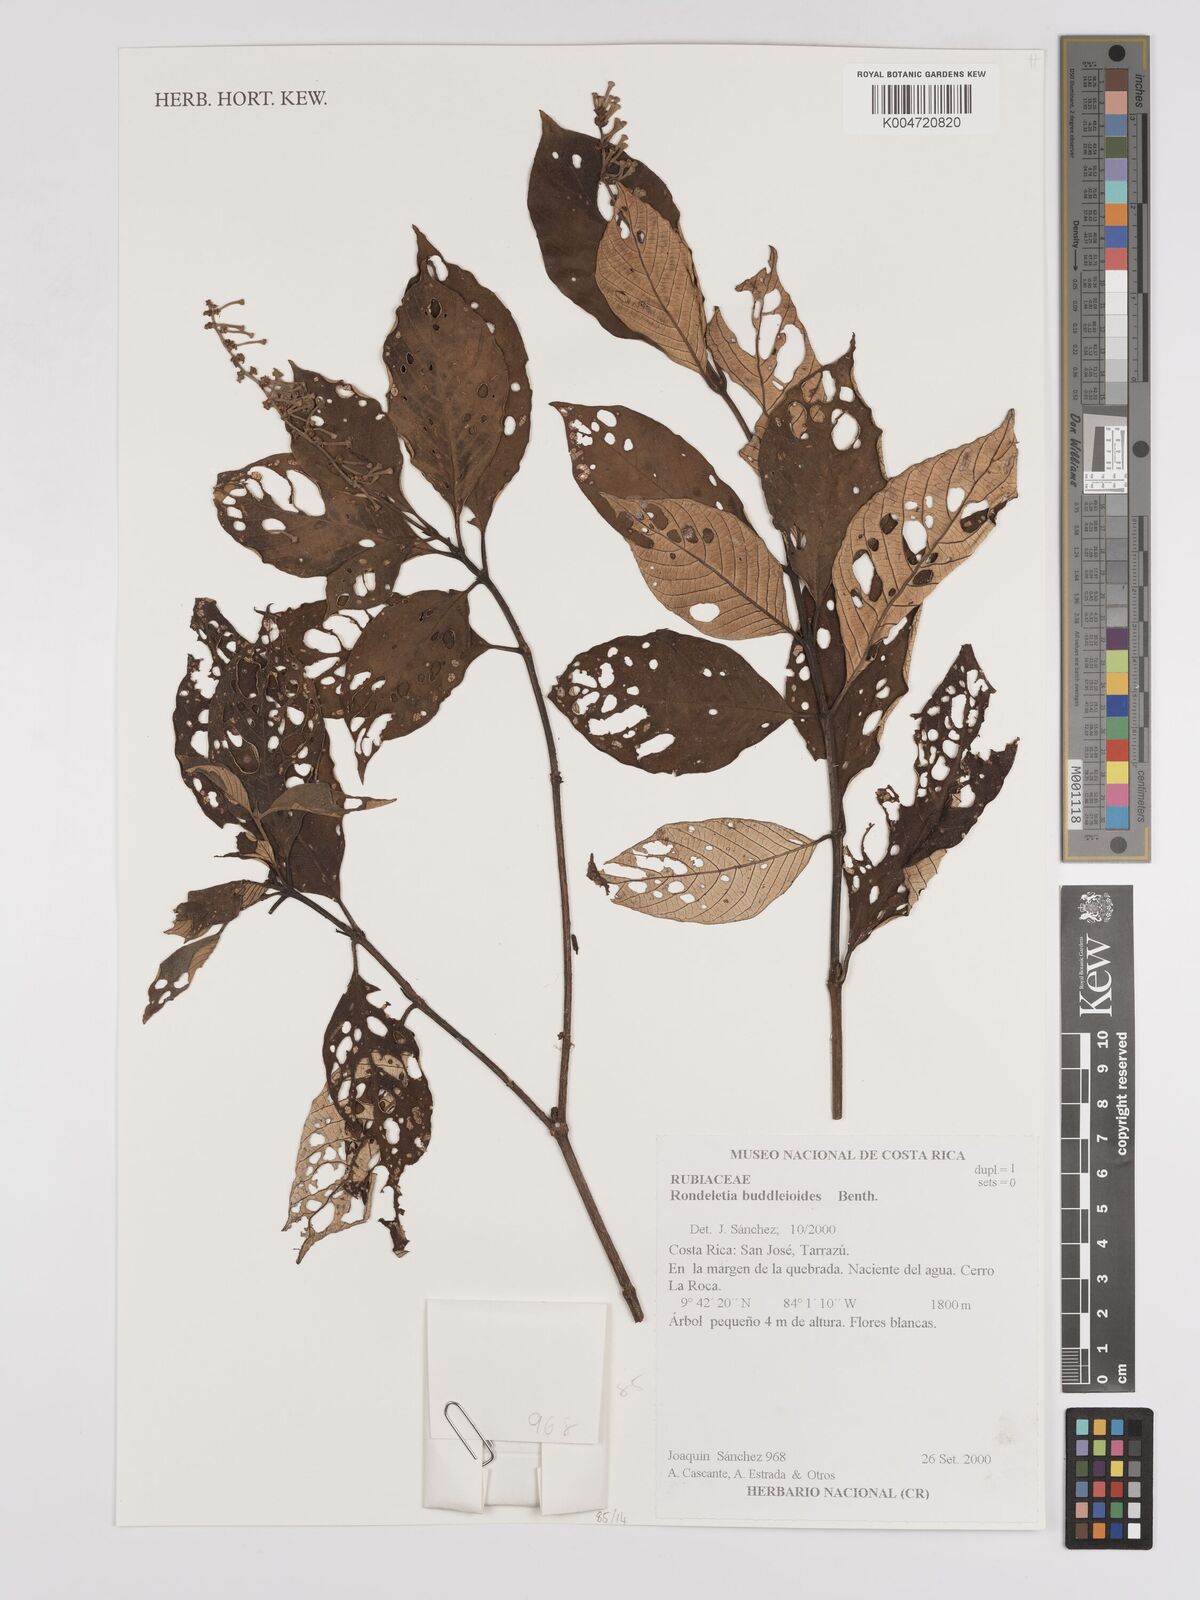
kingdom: Plantae
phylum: Tracheophyta
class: Magnoliopsida
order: Gentianales
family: Rubiaceae
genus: Arachnothryx
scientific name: Arachnothryx buddleioides
